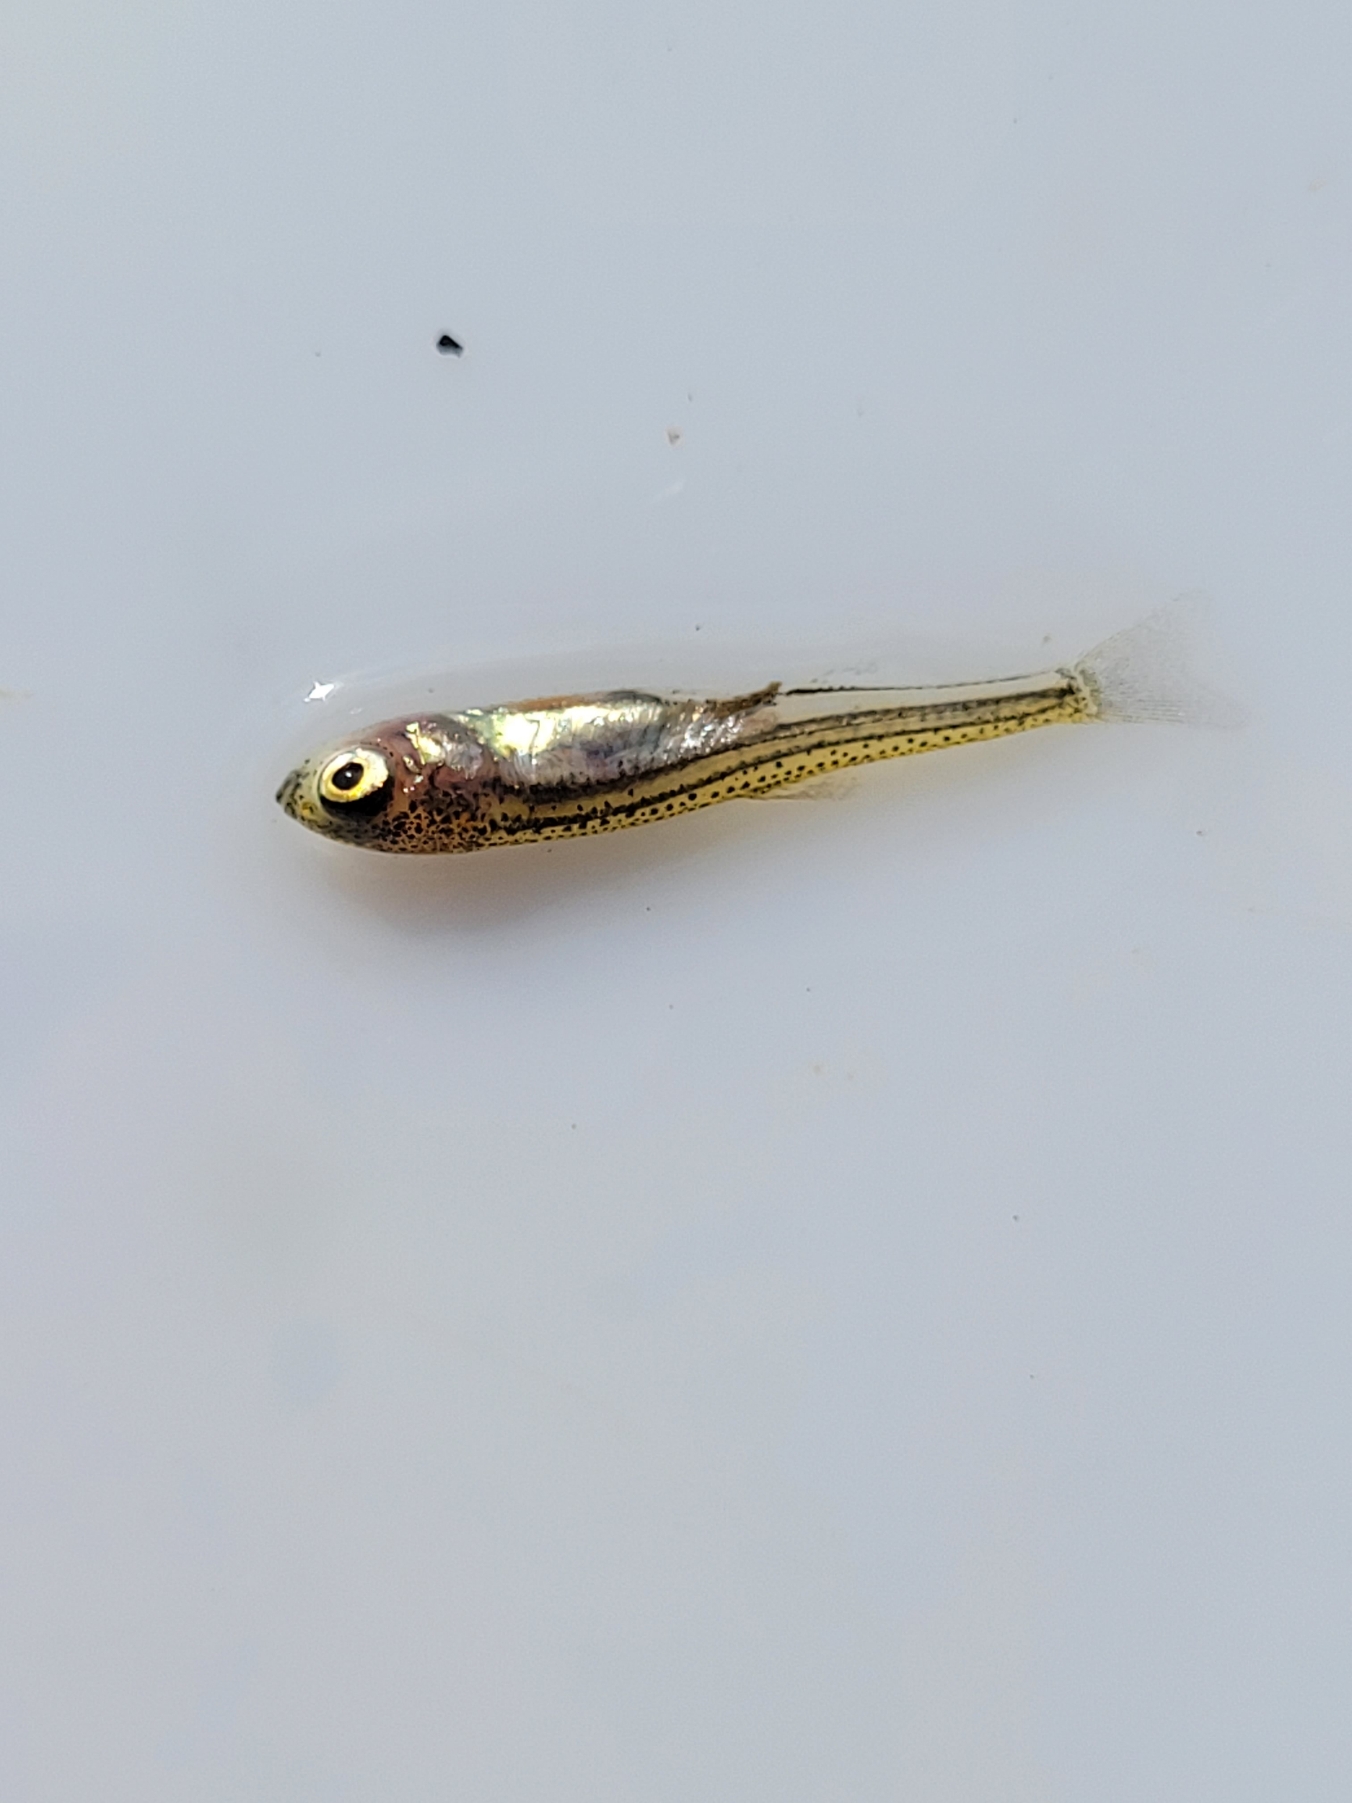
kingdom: Animalia
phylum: Chordata
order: Cypriniformes
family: Cyprinidae
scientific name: Cyprinidae
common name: Karpefamilien
